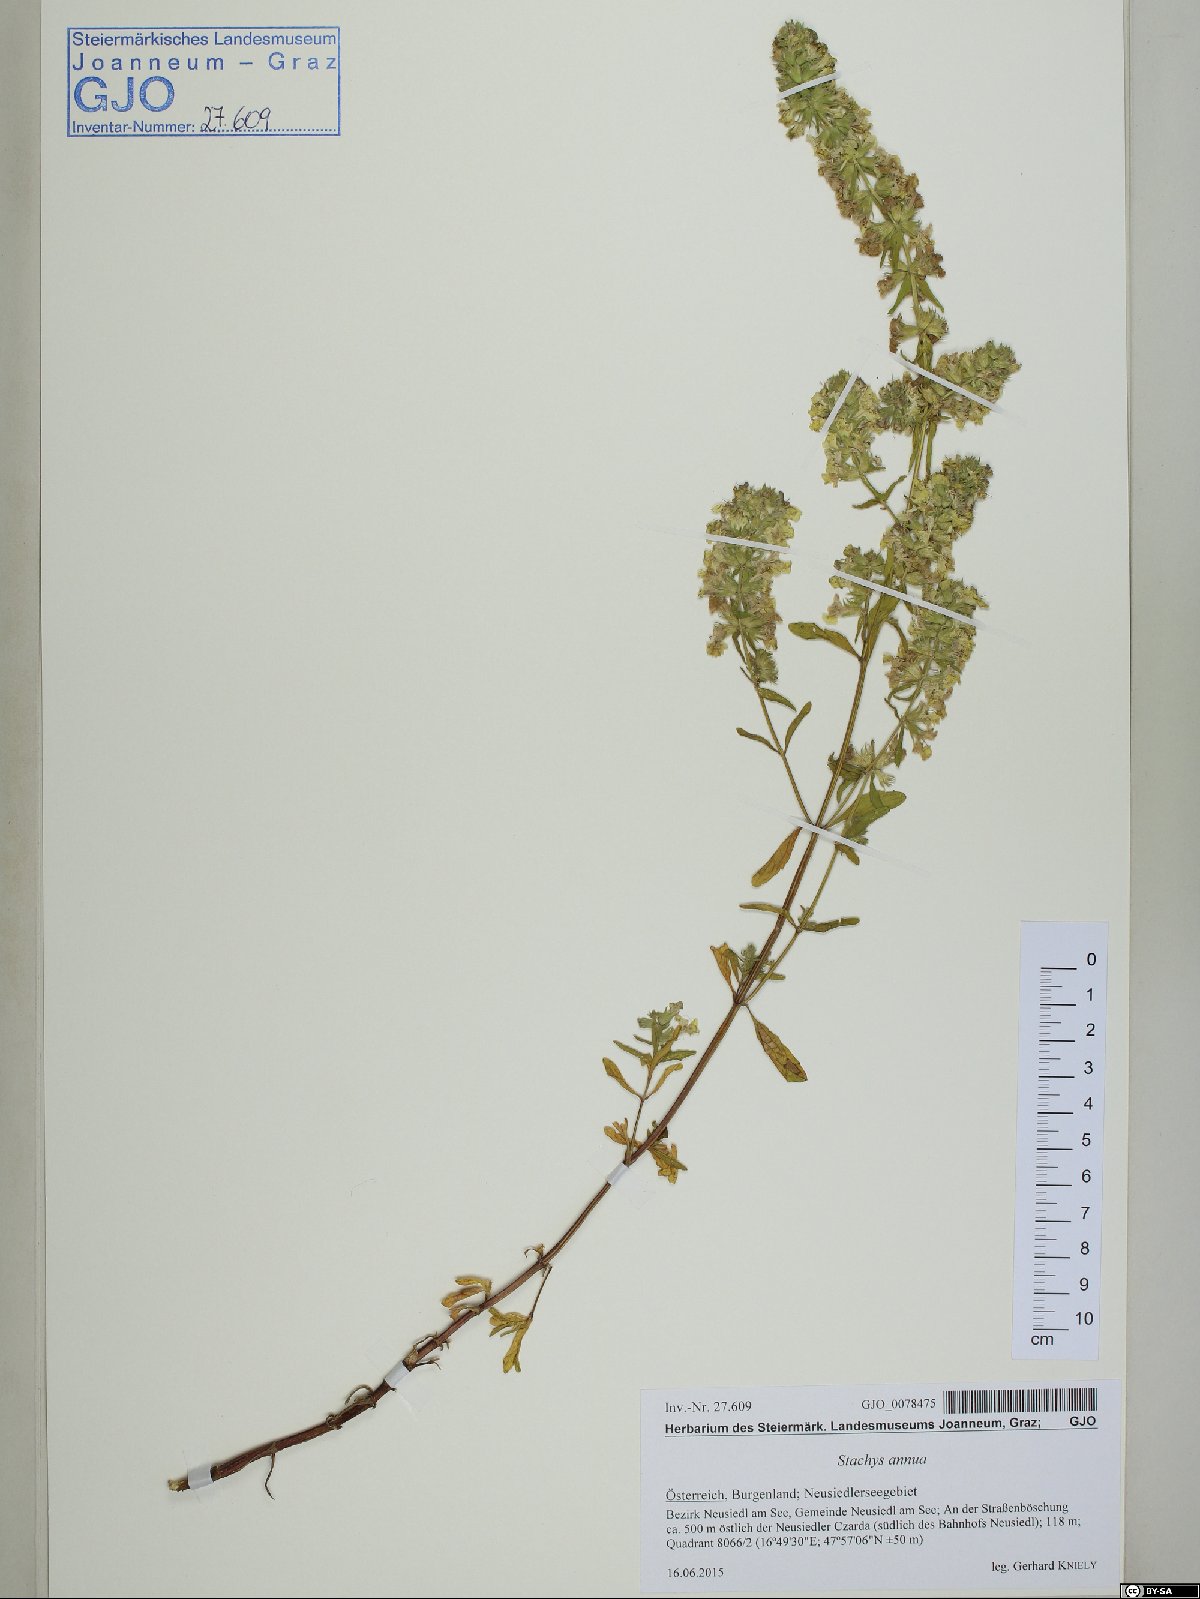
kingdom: Plantae
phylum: Tracheophyta
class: Magnoliopsida
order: Lamiales
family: Lamiaceae
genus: Stachys
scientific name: Stachys annua
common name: Annual yellow-woundwort
